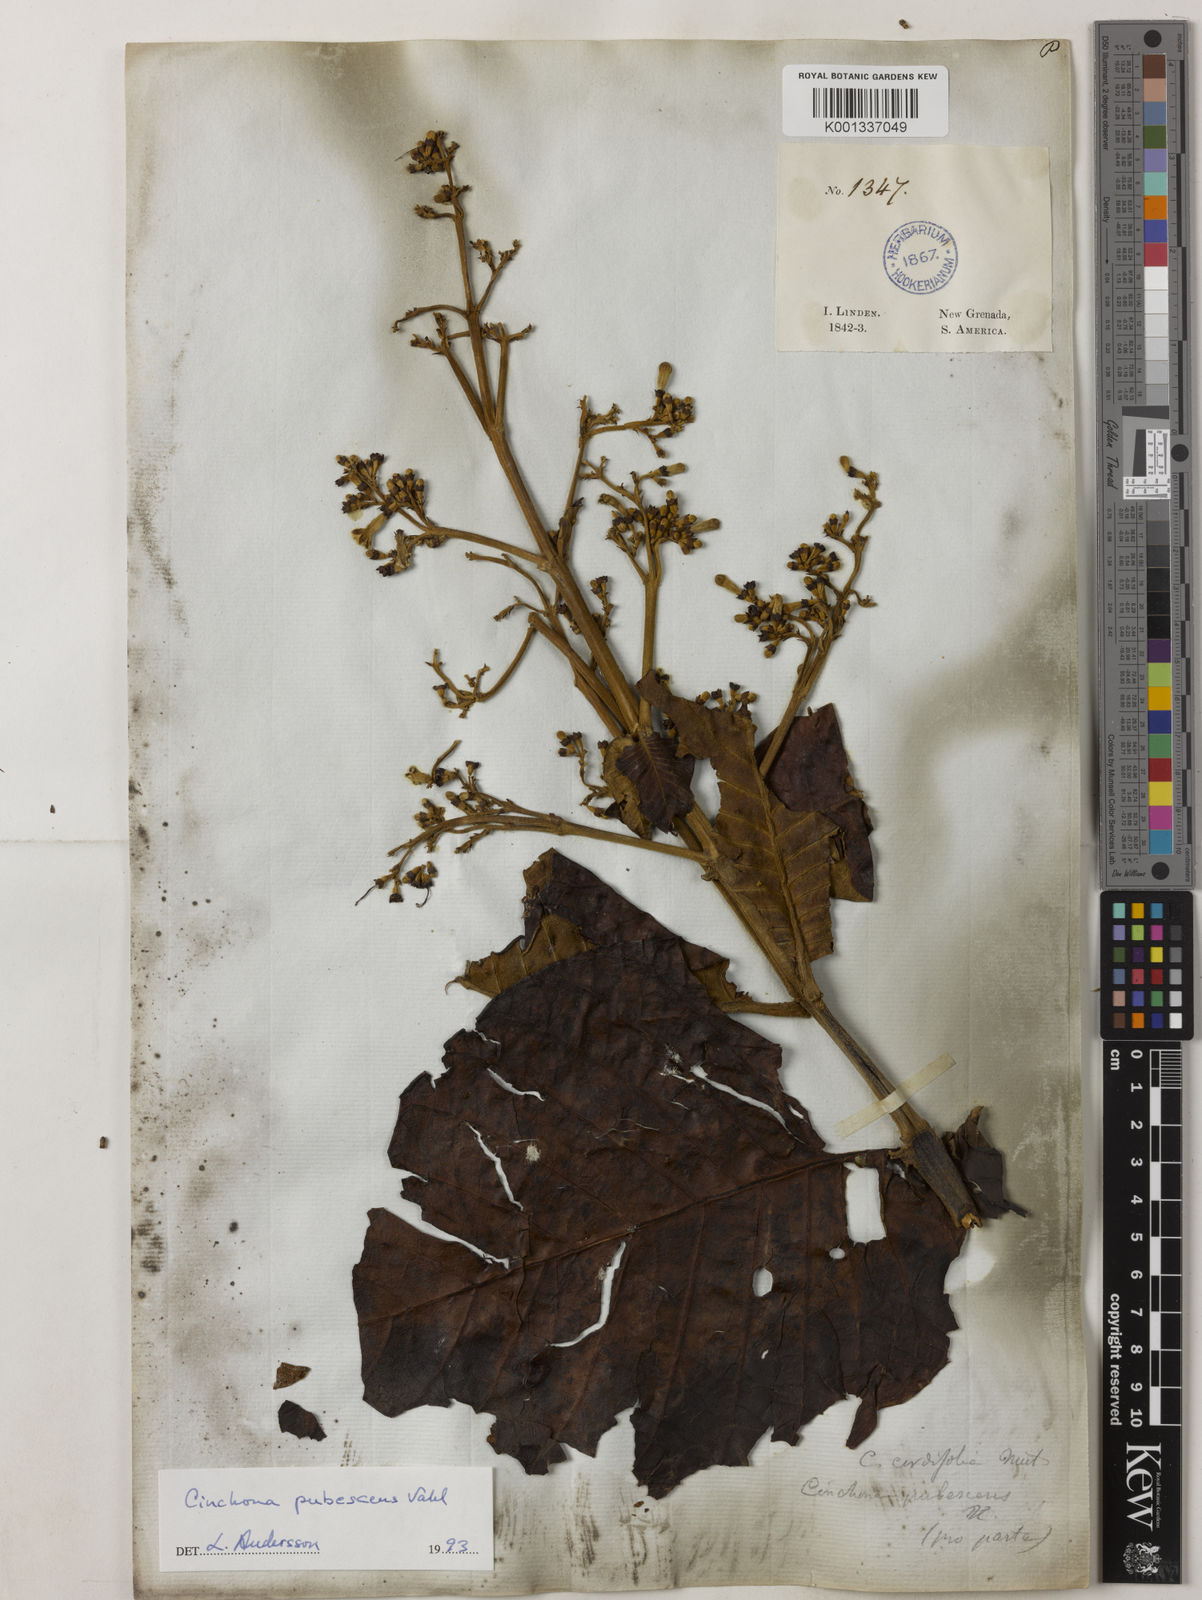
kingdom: Plantae
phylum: Tracheophyta
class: Magnoliopsida
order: Gentianales
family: Rubiaceae
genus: Cinchona
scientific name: Cinchona pubescens
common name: Quinine
